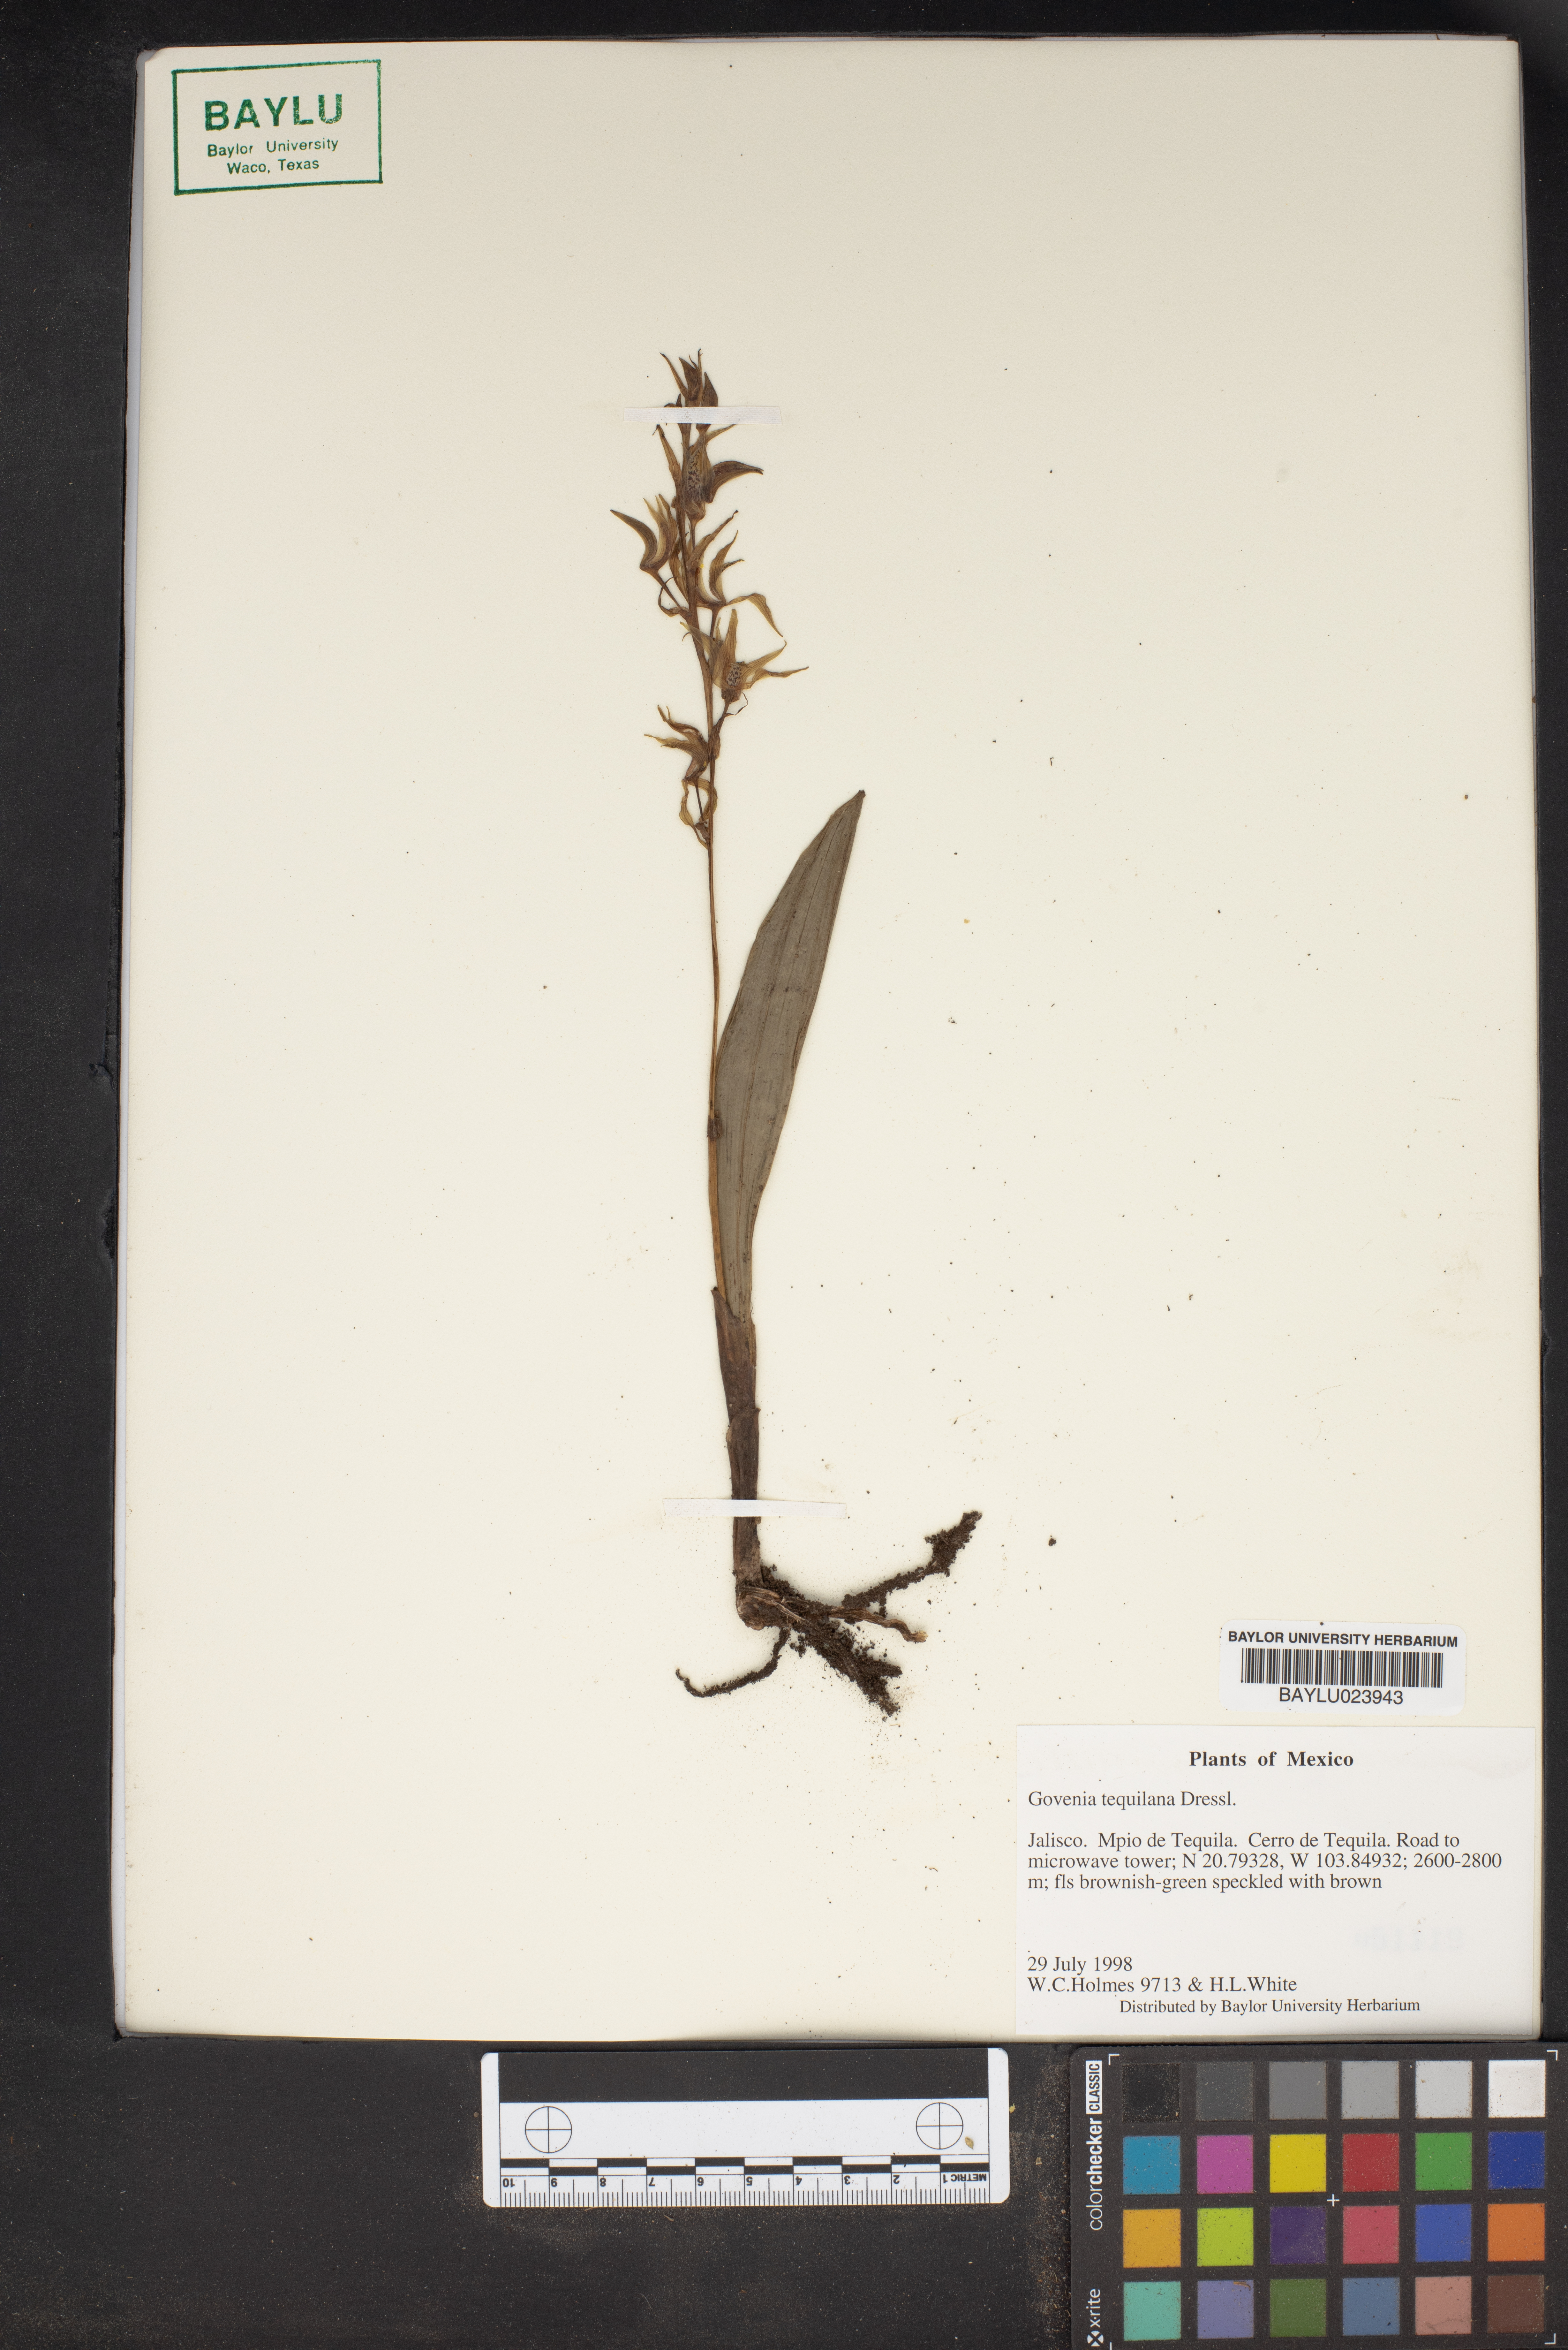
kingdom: Plantae
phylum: Tracheophyta
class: Liliopsida
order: Asparagales
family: Orchidaceae
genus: Govenia
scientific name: Govenia tequilana
